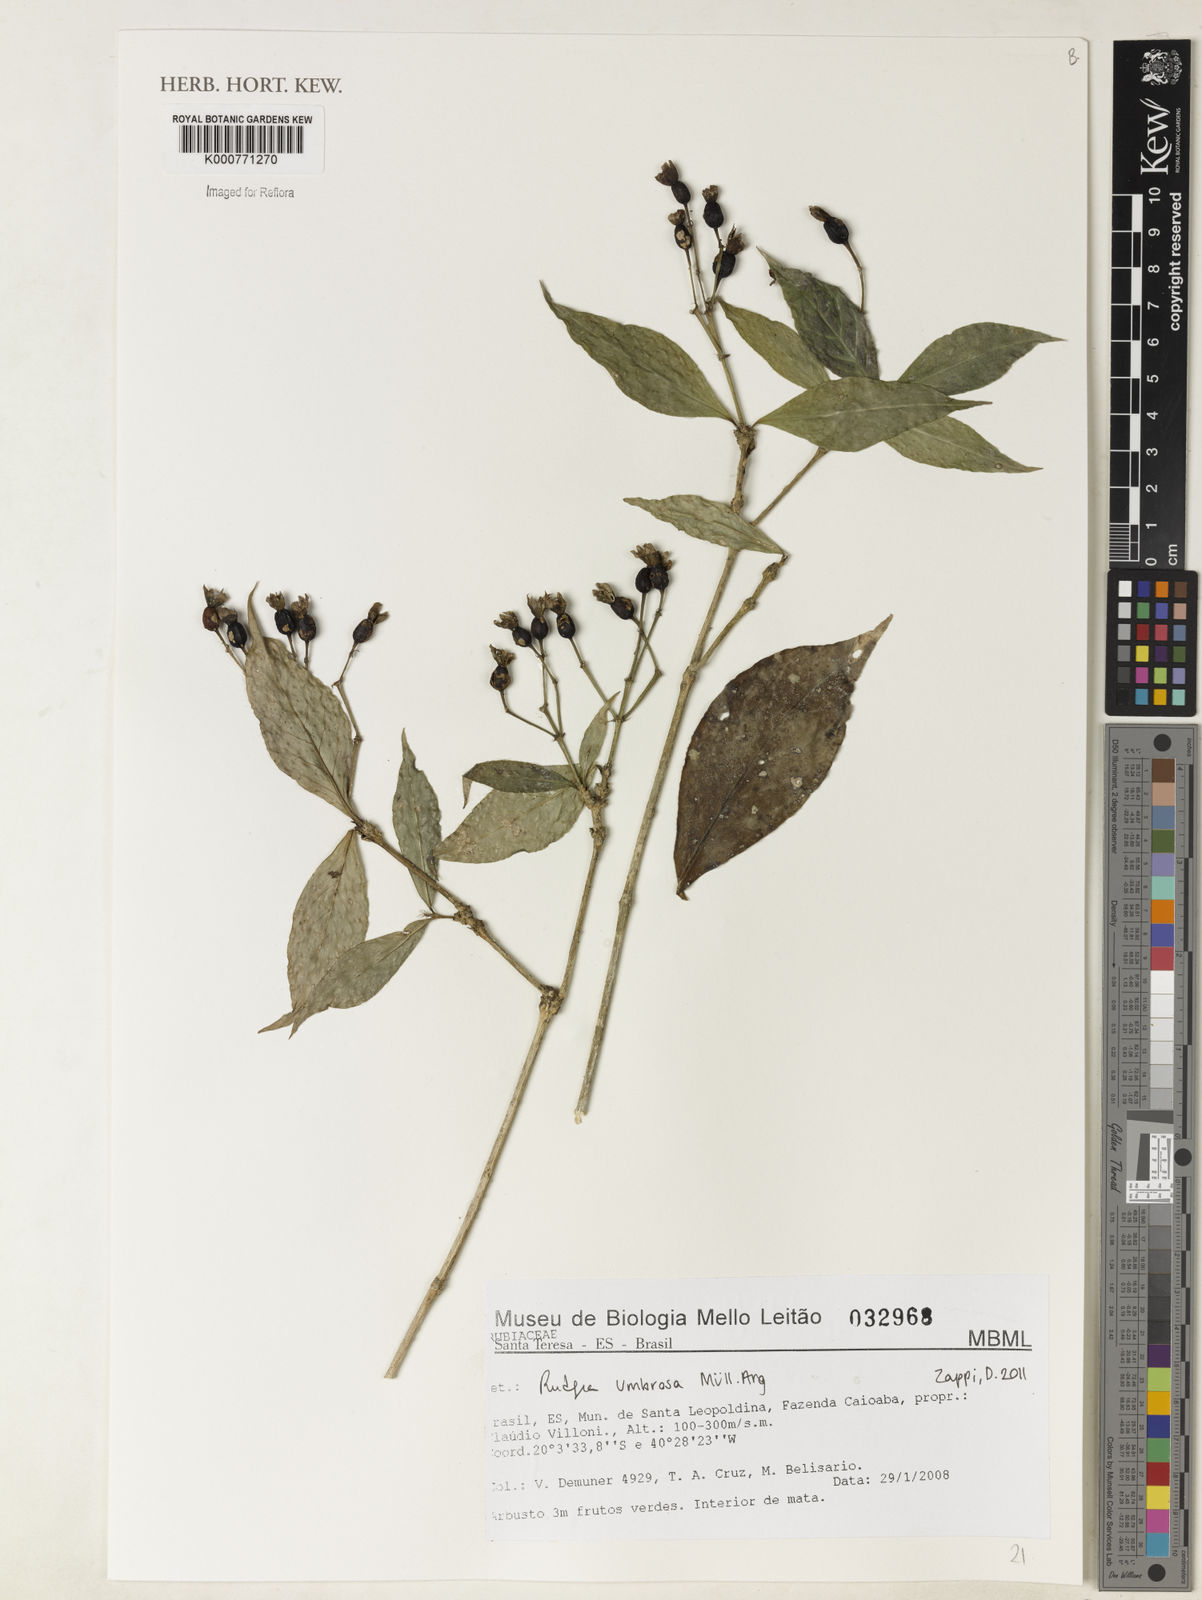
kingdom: Plantae
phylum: Tracheophyta
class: Magnoliopsida
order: Gentianales
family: Rubiaceae
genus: Rudgea
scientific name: Rudgea
